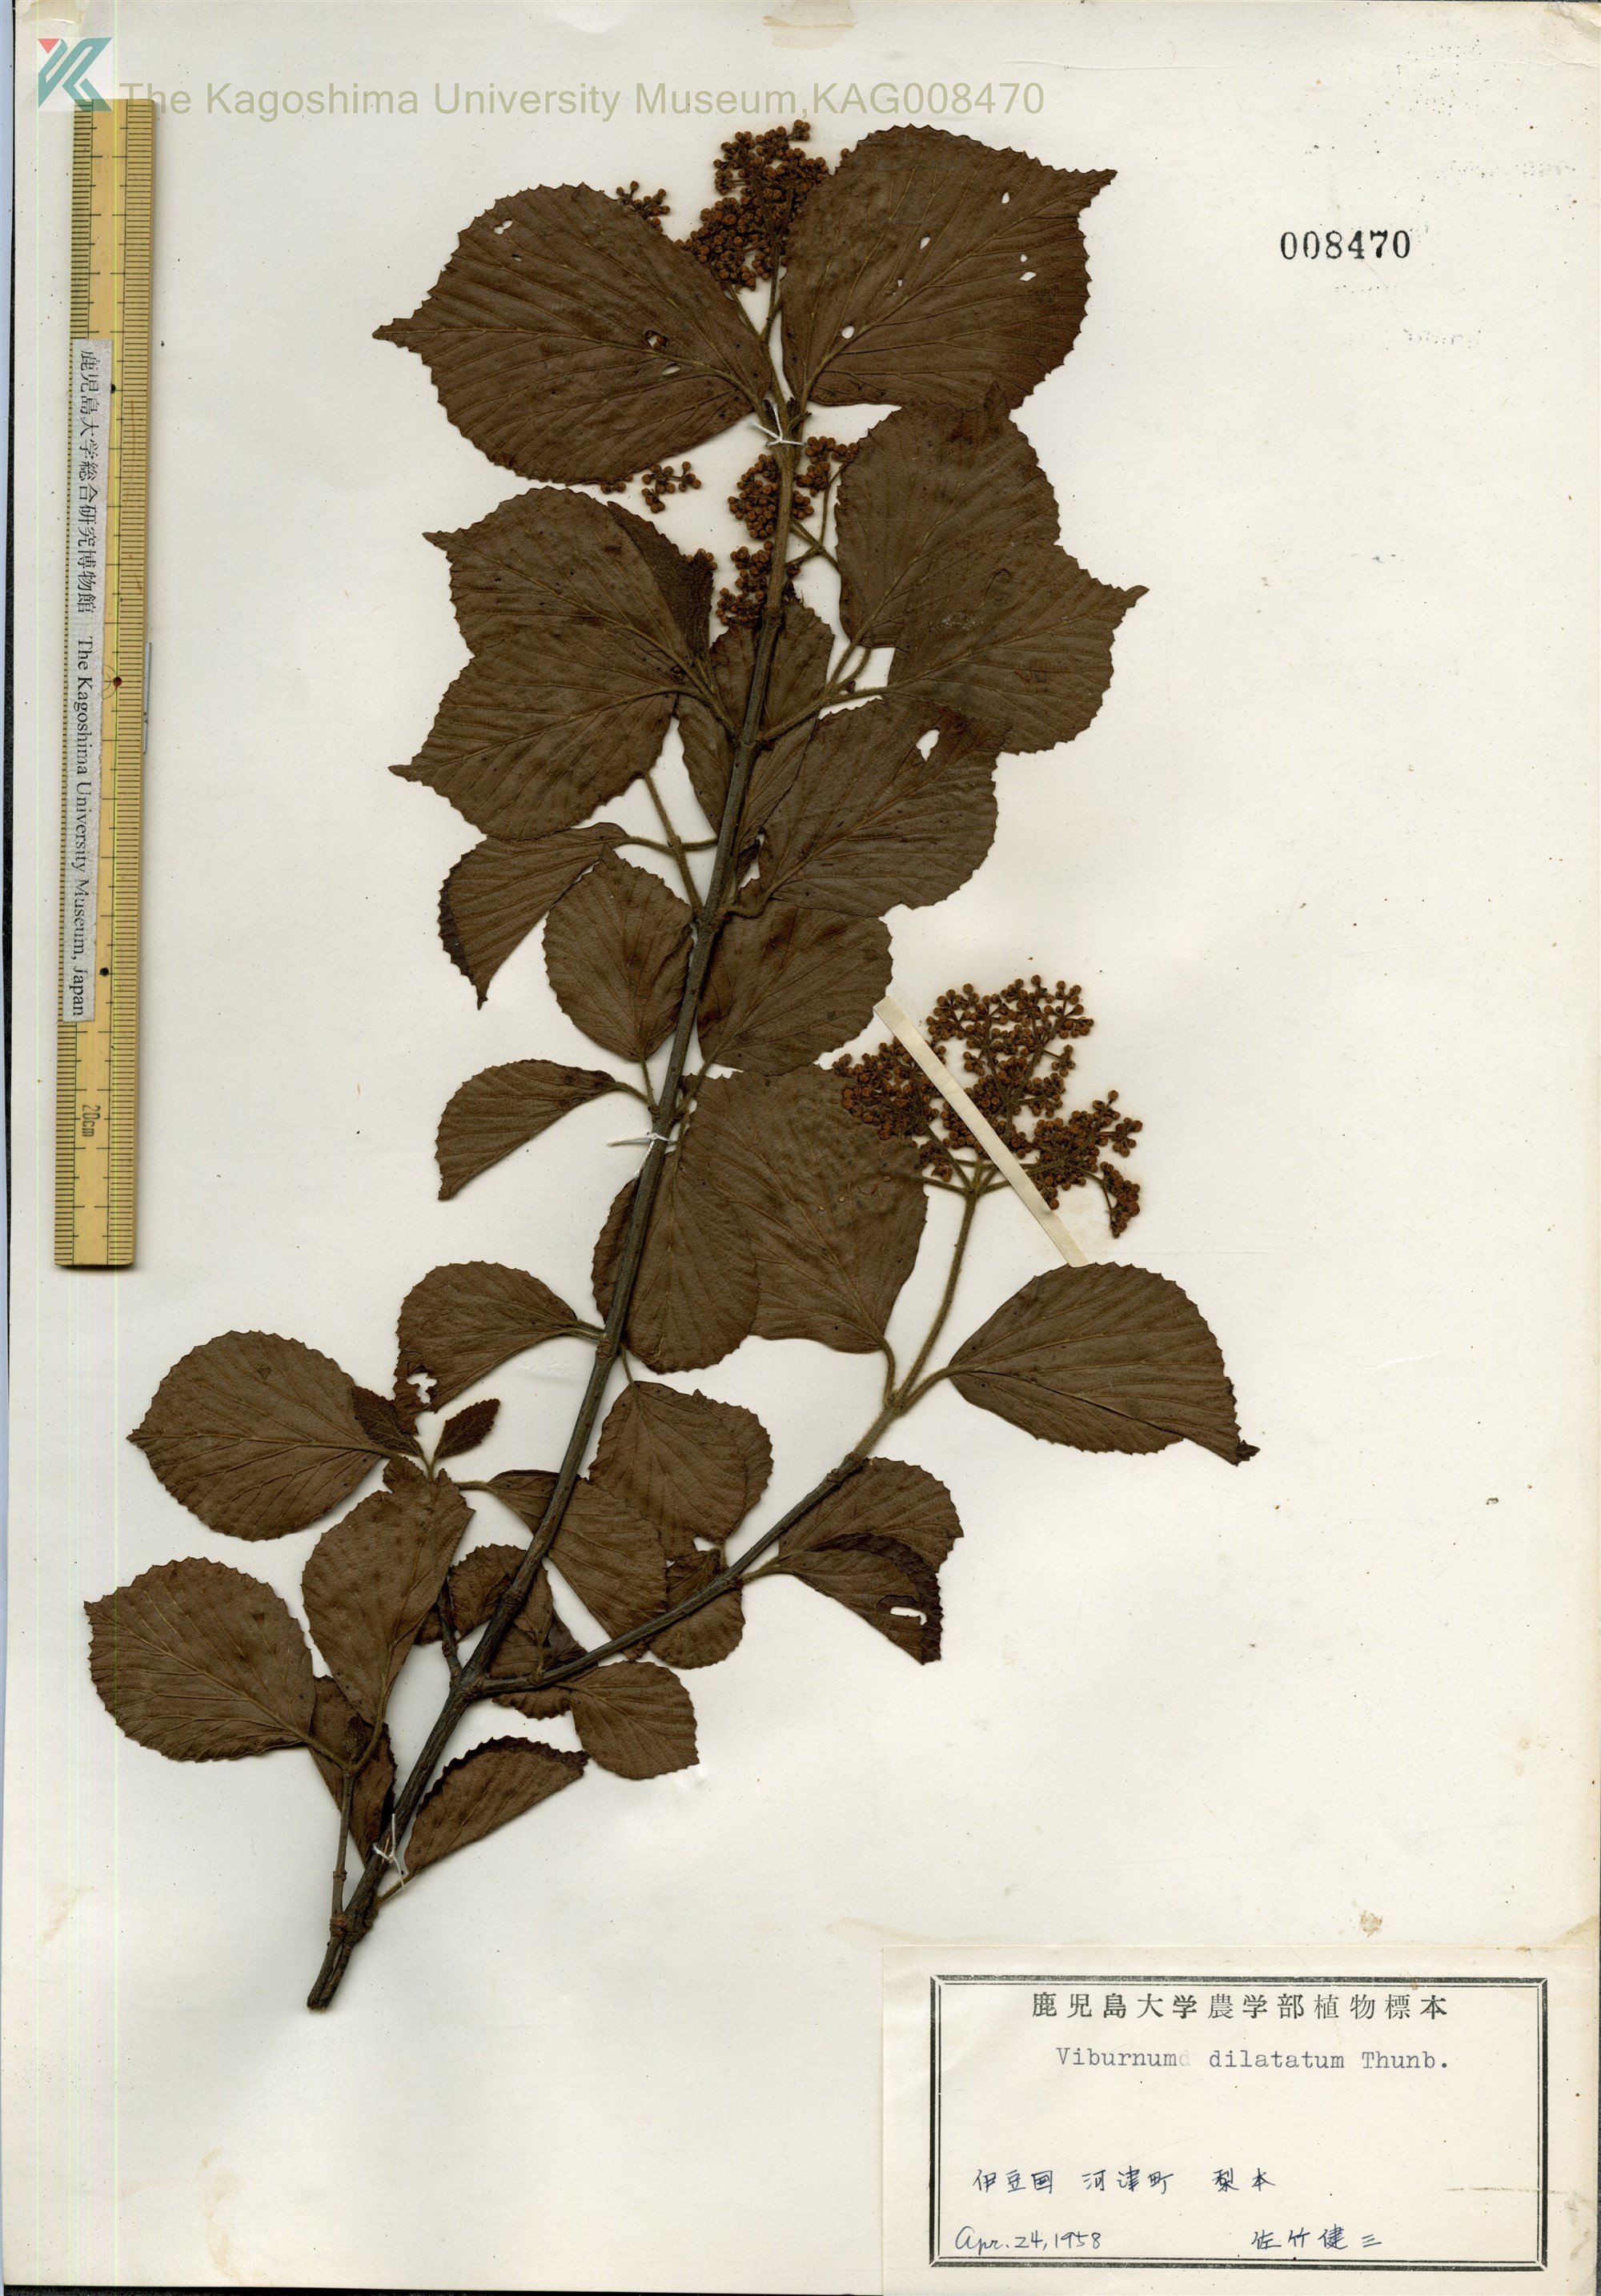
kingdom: Plantae
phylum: Tracheophyta
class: Magnoliopsida
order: Dipsacales
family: Viburnaceae
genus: Viburnum
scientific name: Viburnum dilatatum
